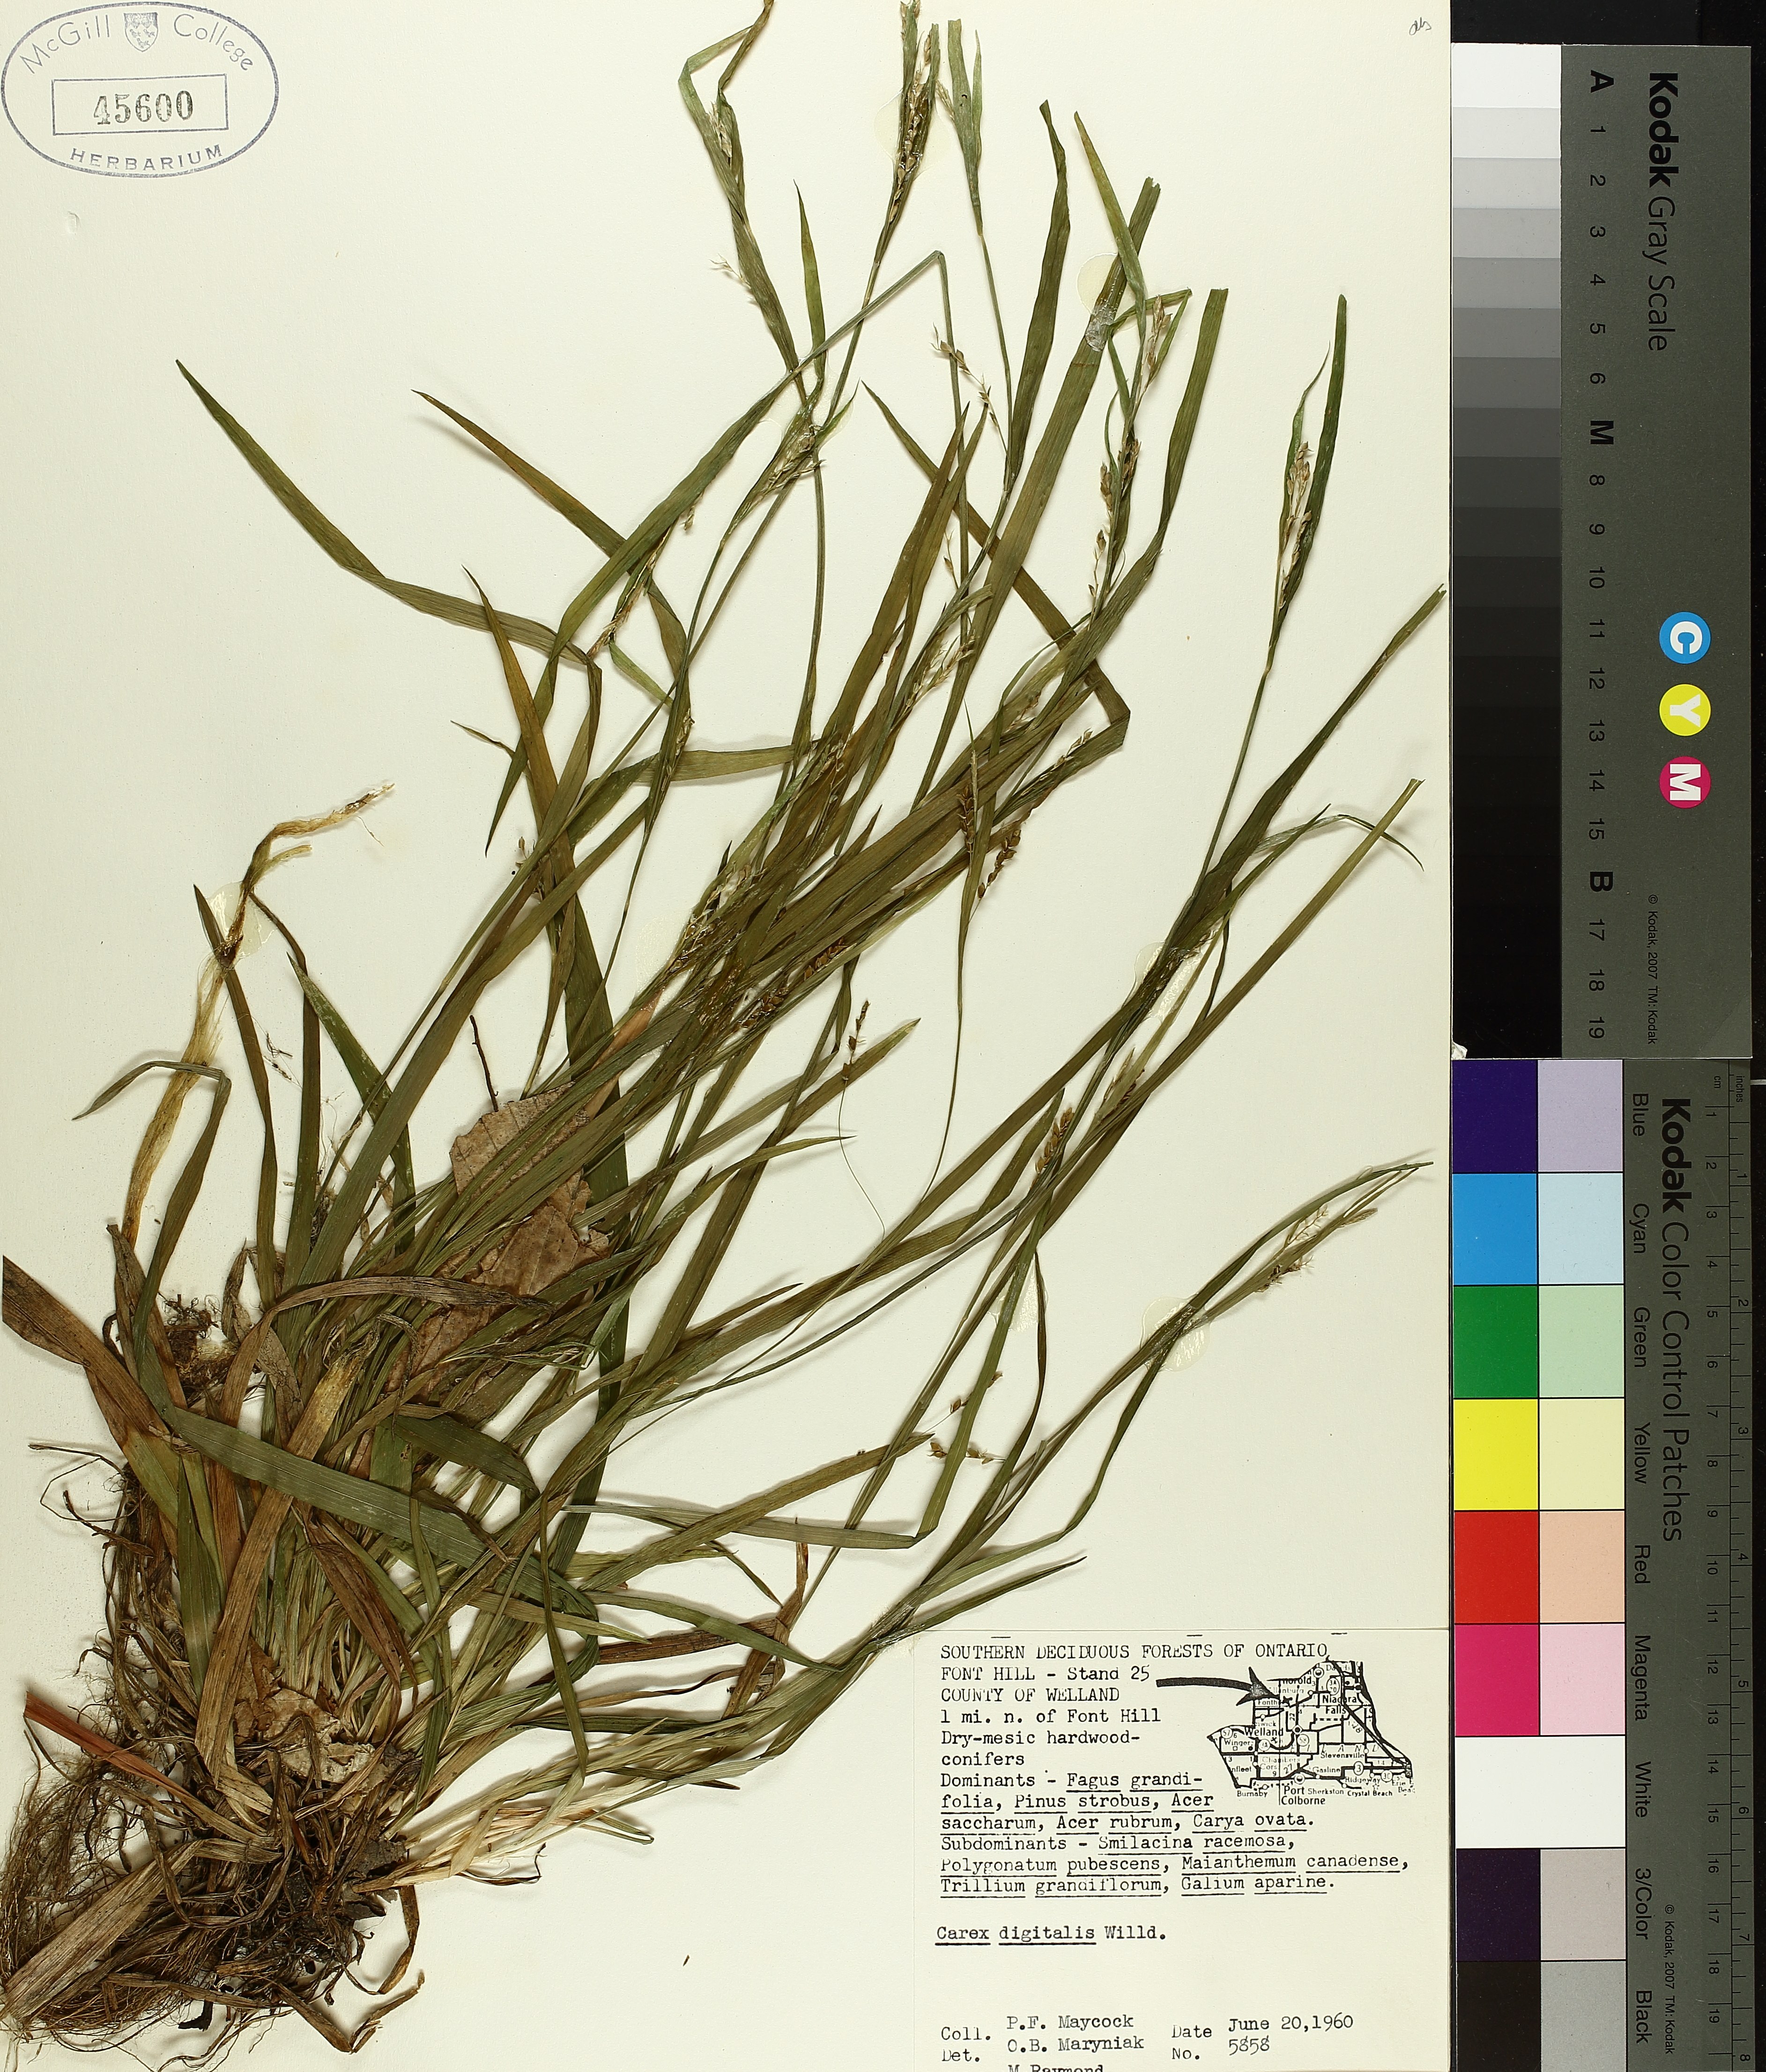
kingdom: Plantae
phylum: Tracheophyta
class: Liliopsida
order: Poales
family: Cyperaceae
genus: Carex
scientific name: Carex digitalis
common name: Slender wood sedge
